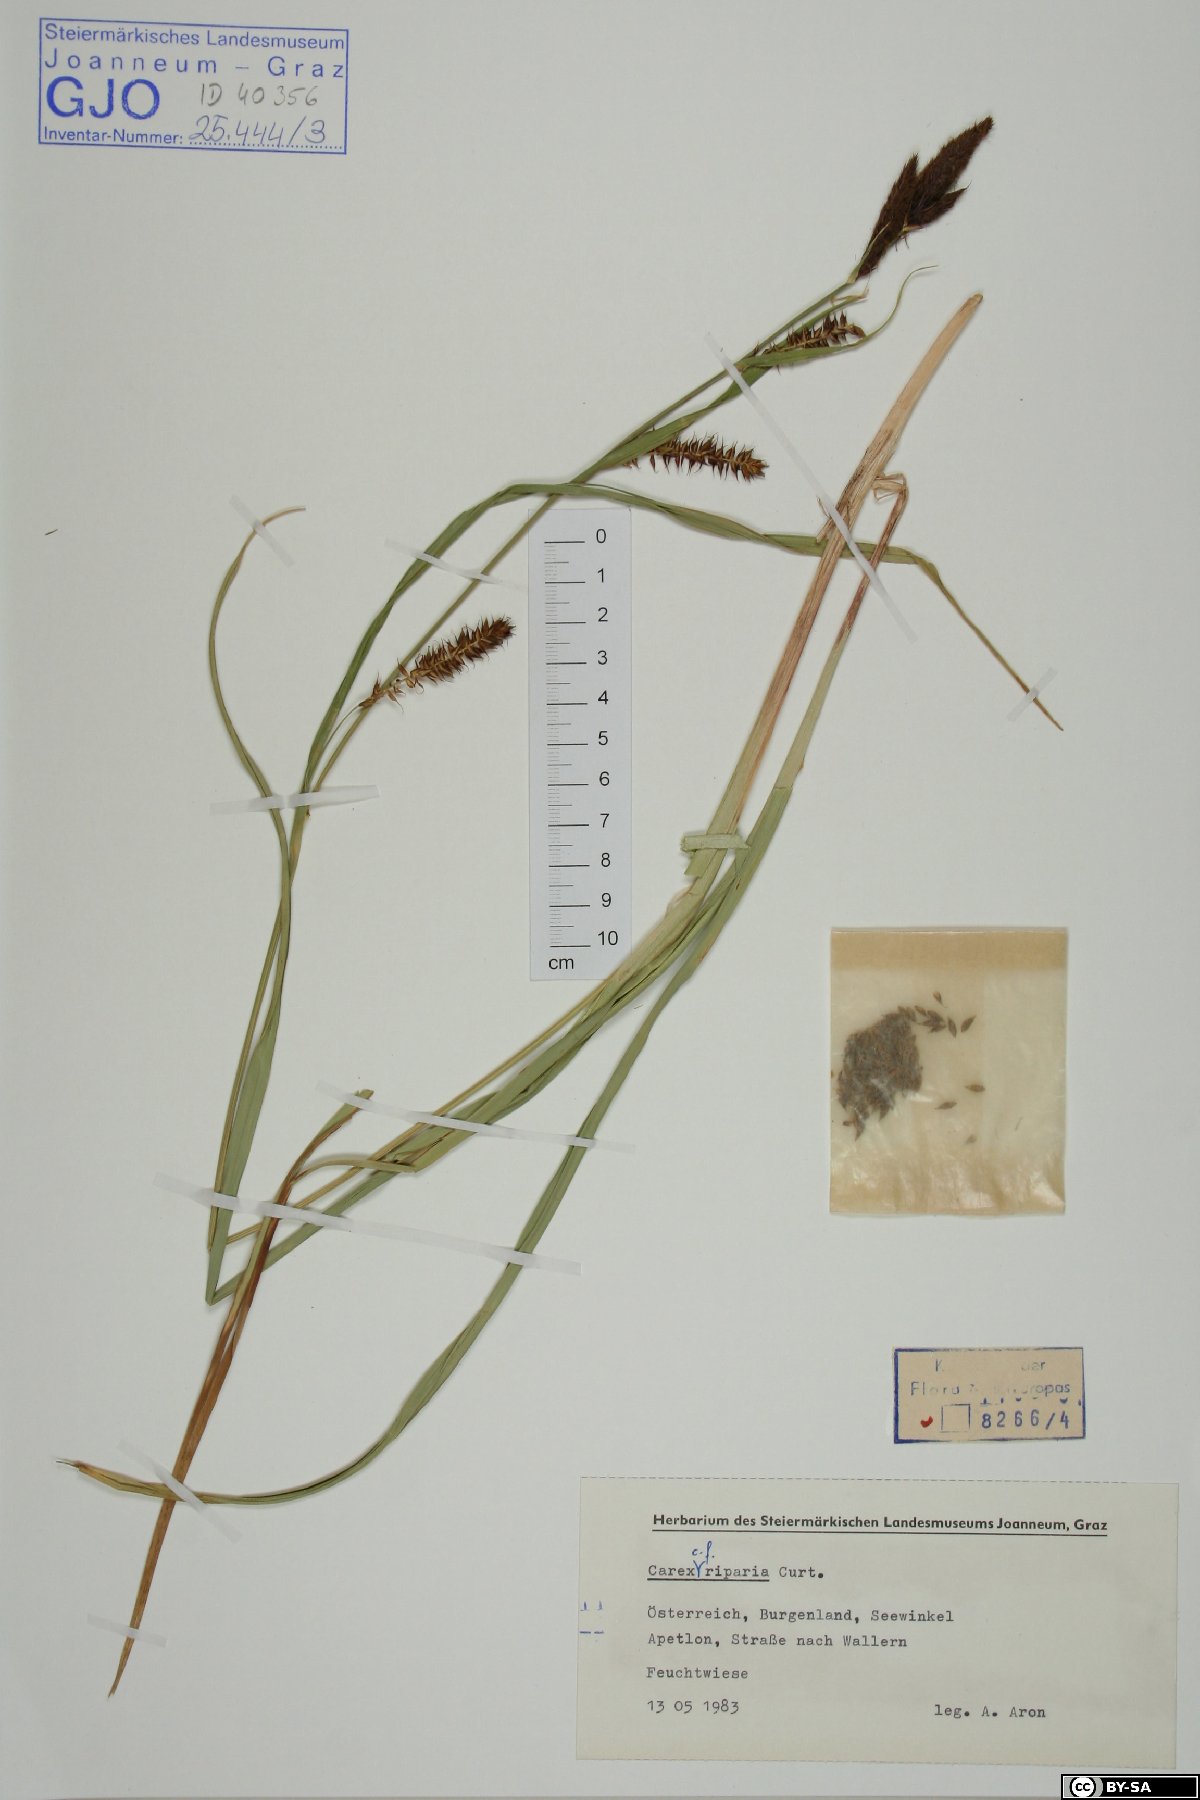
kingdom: Plantae
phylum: Tracheophyta
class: Liliopsida
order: Poales
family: Cyperaceae
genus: Carex
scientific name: Carex riparia
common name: Greater pond-sedge
